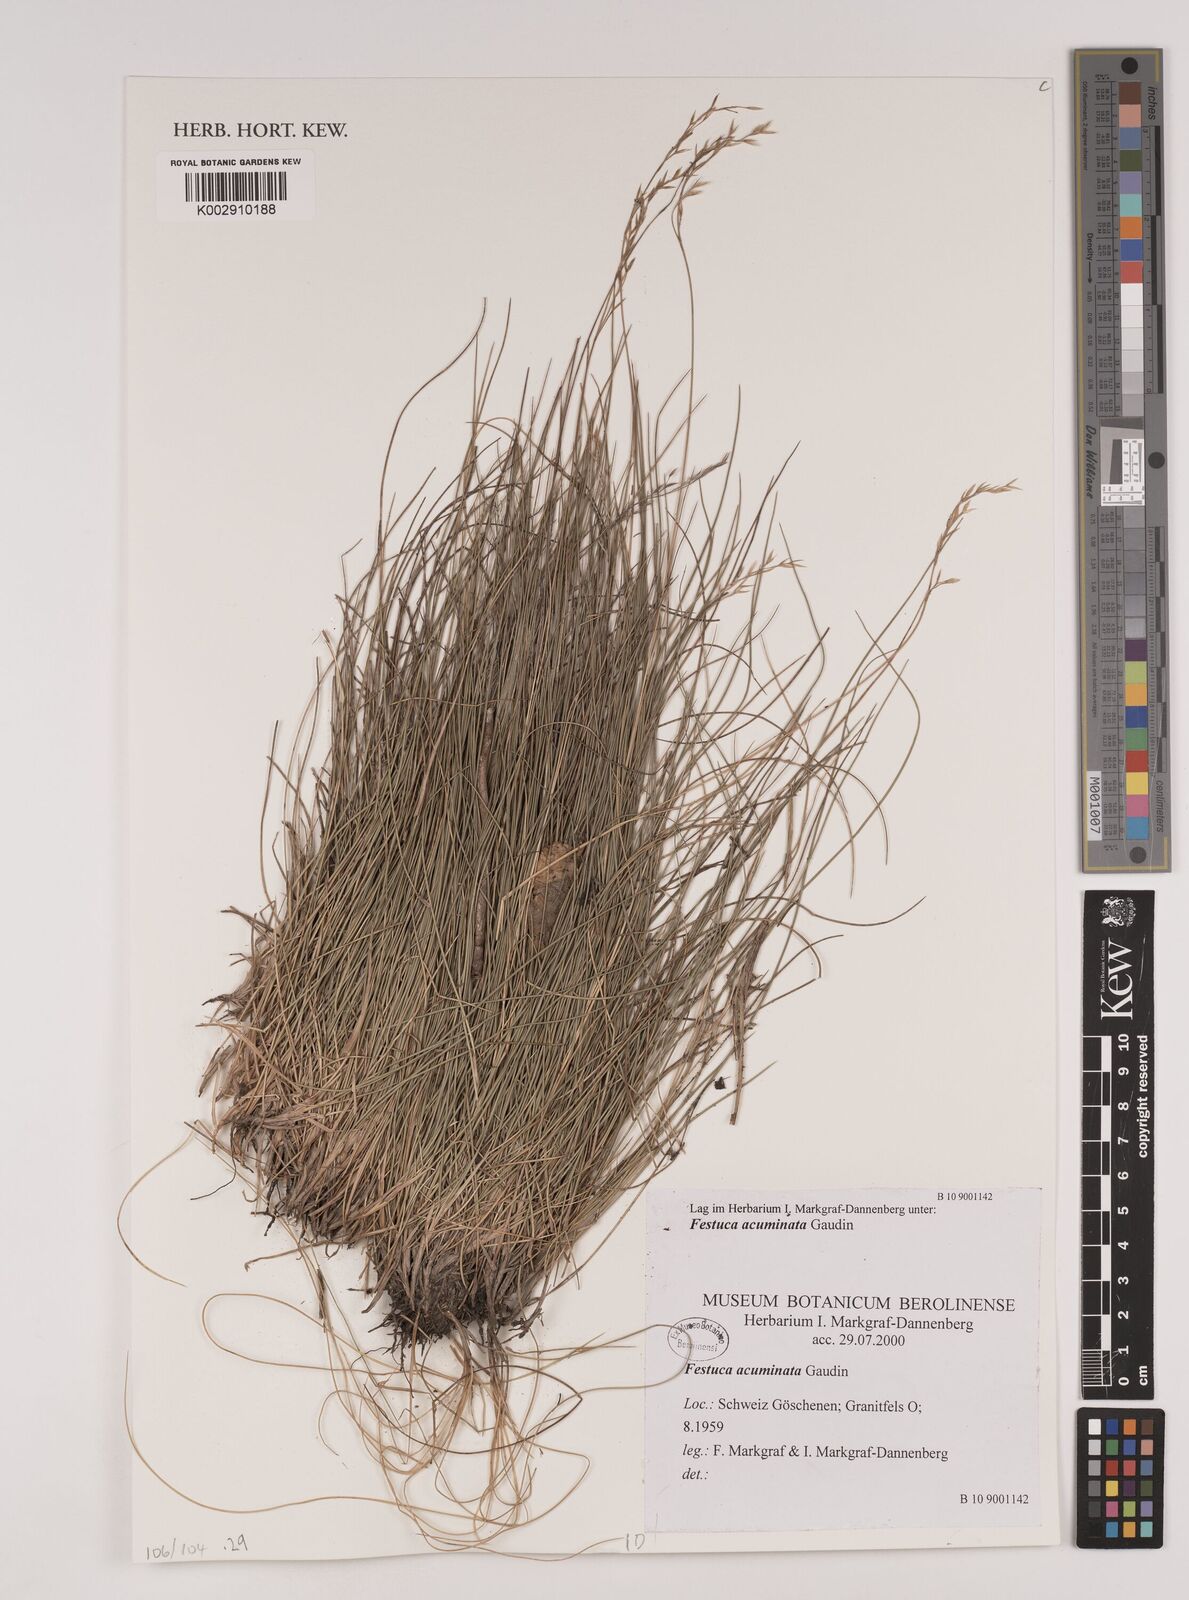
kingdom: Plantae
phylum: Tracheophyta
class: Liliopsida
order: Poales
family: Poaceae
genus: Festuca
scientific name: Festuca acuminata
